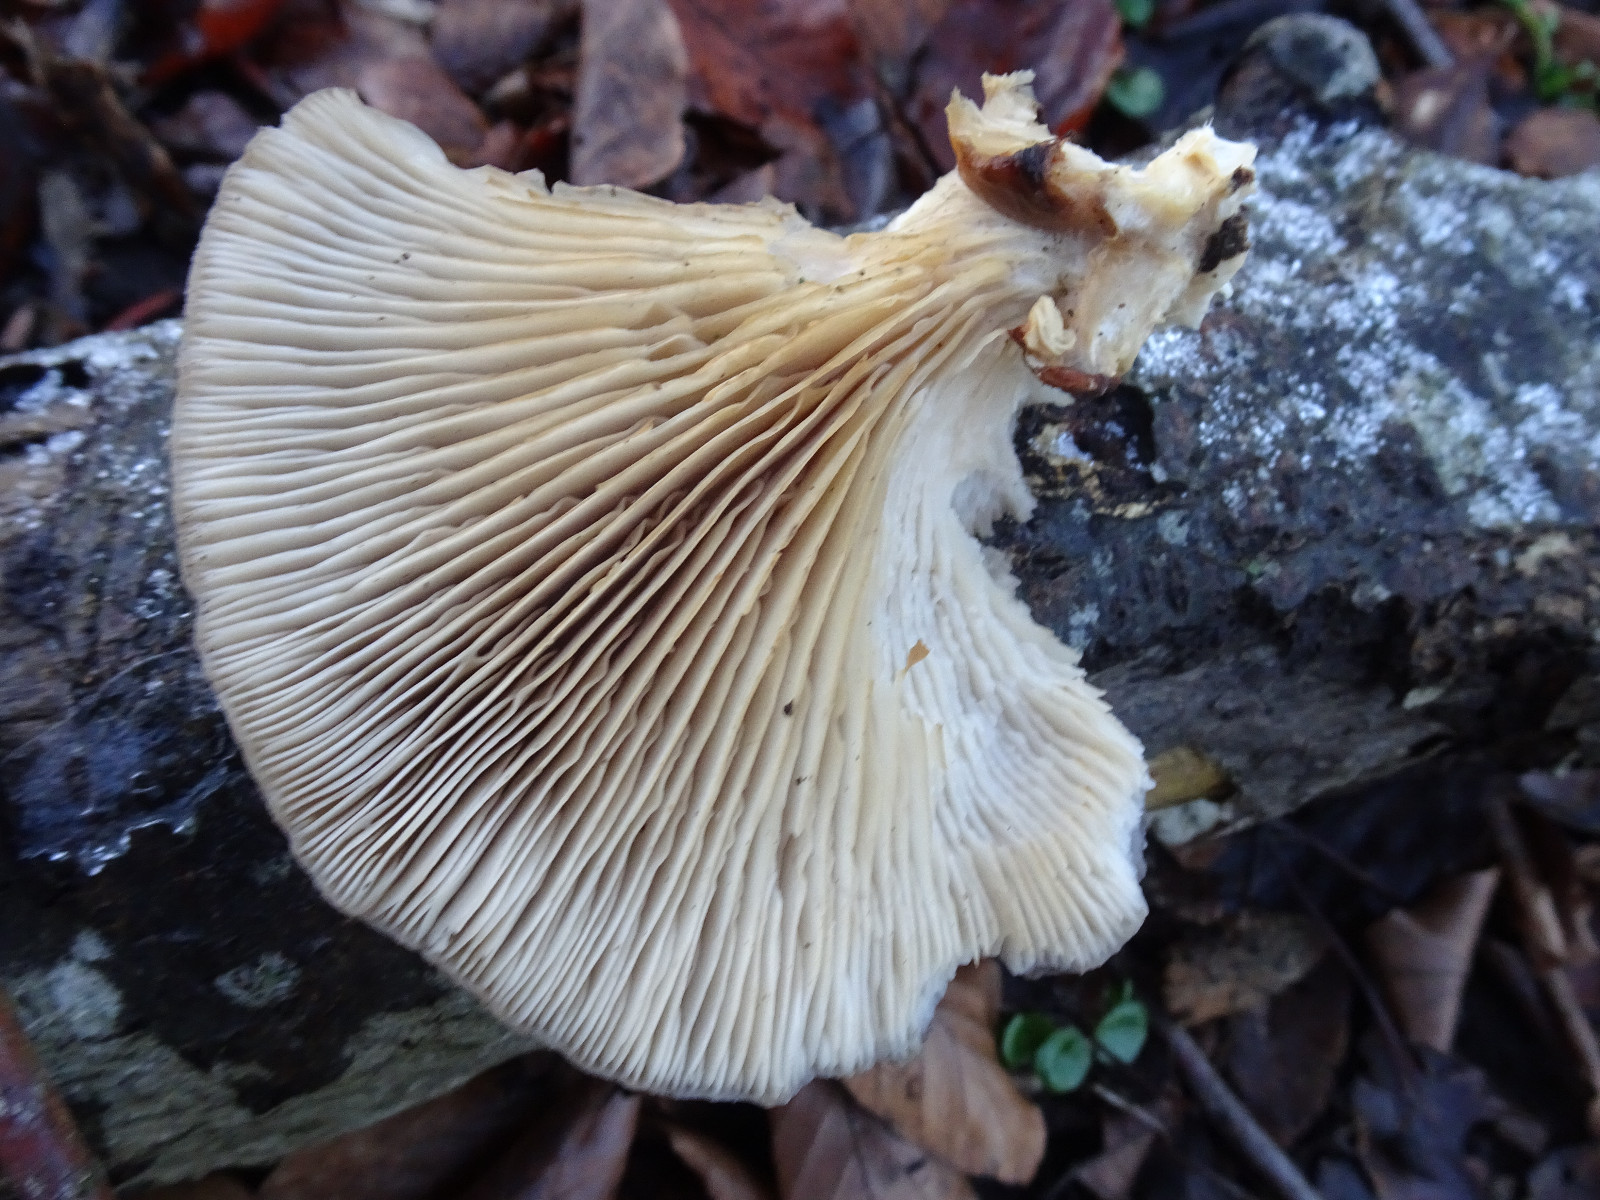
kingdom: Fungi
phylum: Basidiomycota
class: Agaricomycetes
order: Agaricales
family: Pleurotaceae
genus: Pleurotus
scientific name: Pleurotus ostreatus
